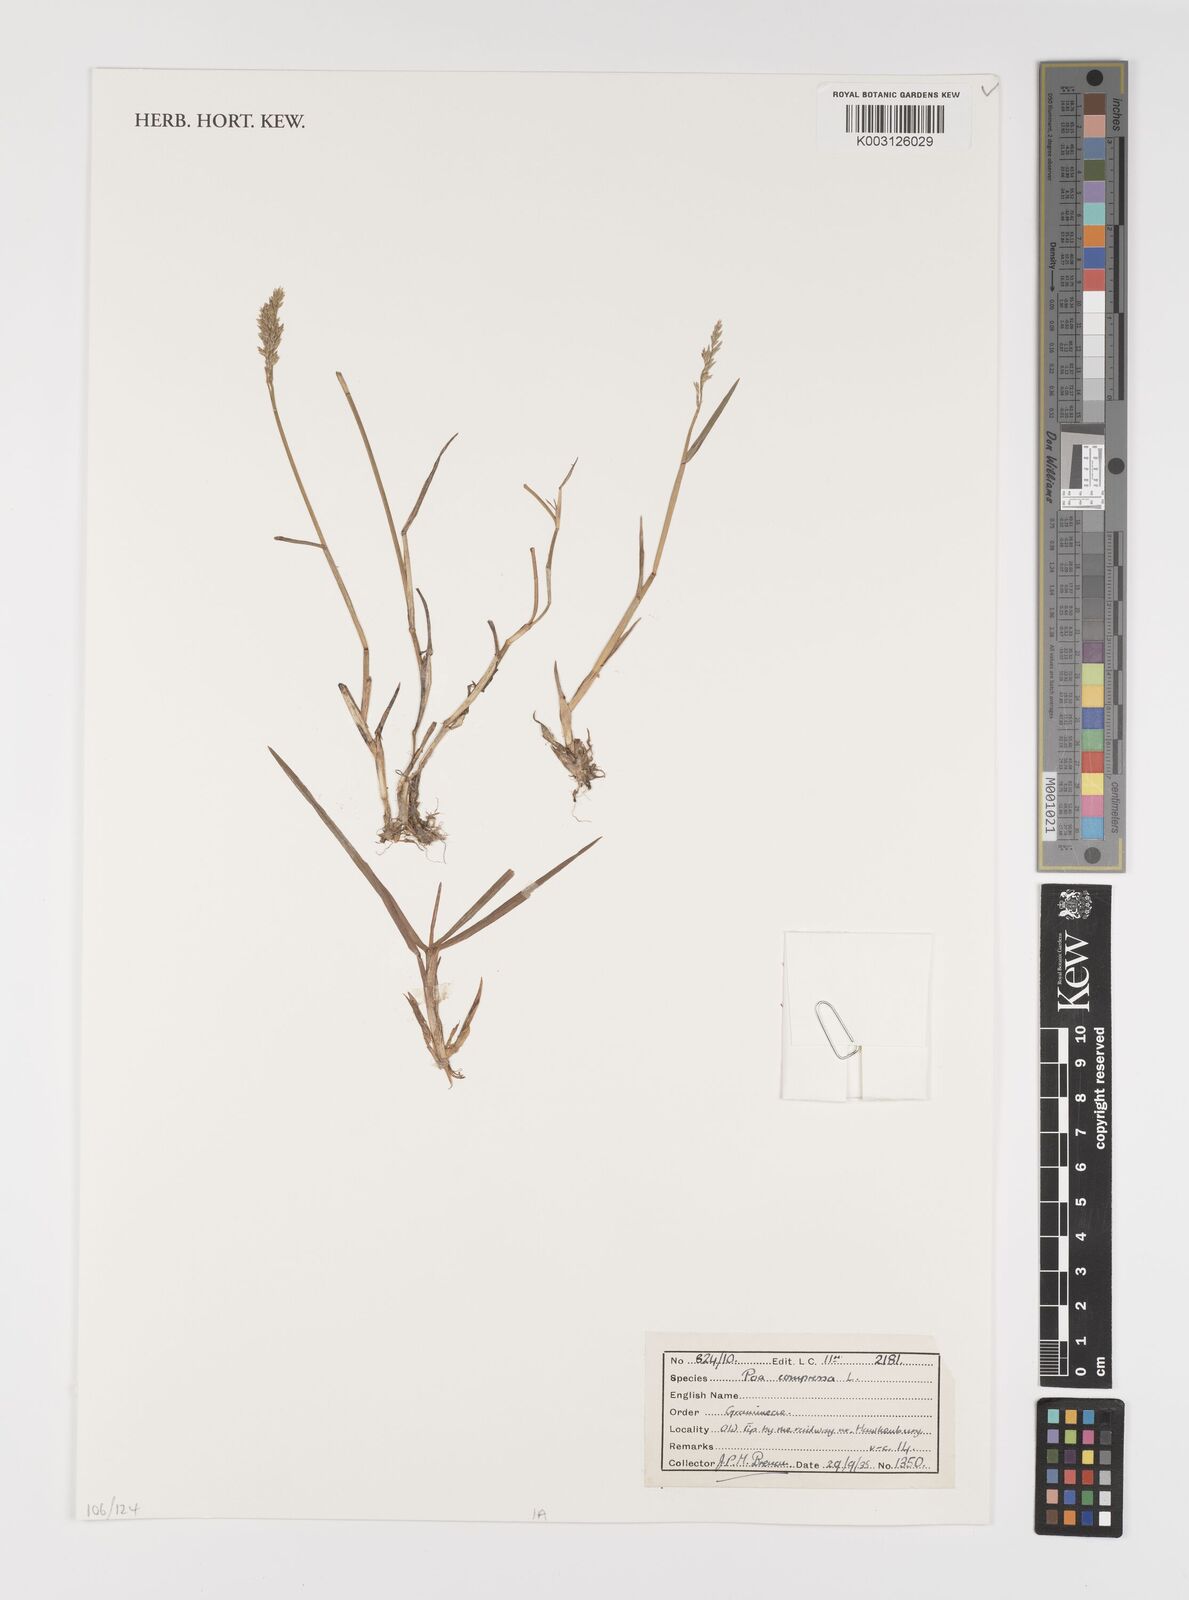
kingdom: Plantae
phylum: Tracheophyta
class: Liliopsida
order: Poales
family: Poaceae
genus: Poa
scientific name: Poa compressa
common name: Canada bluegrass
